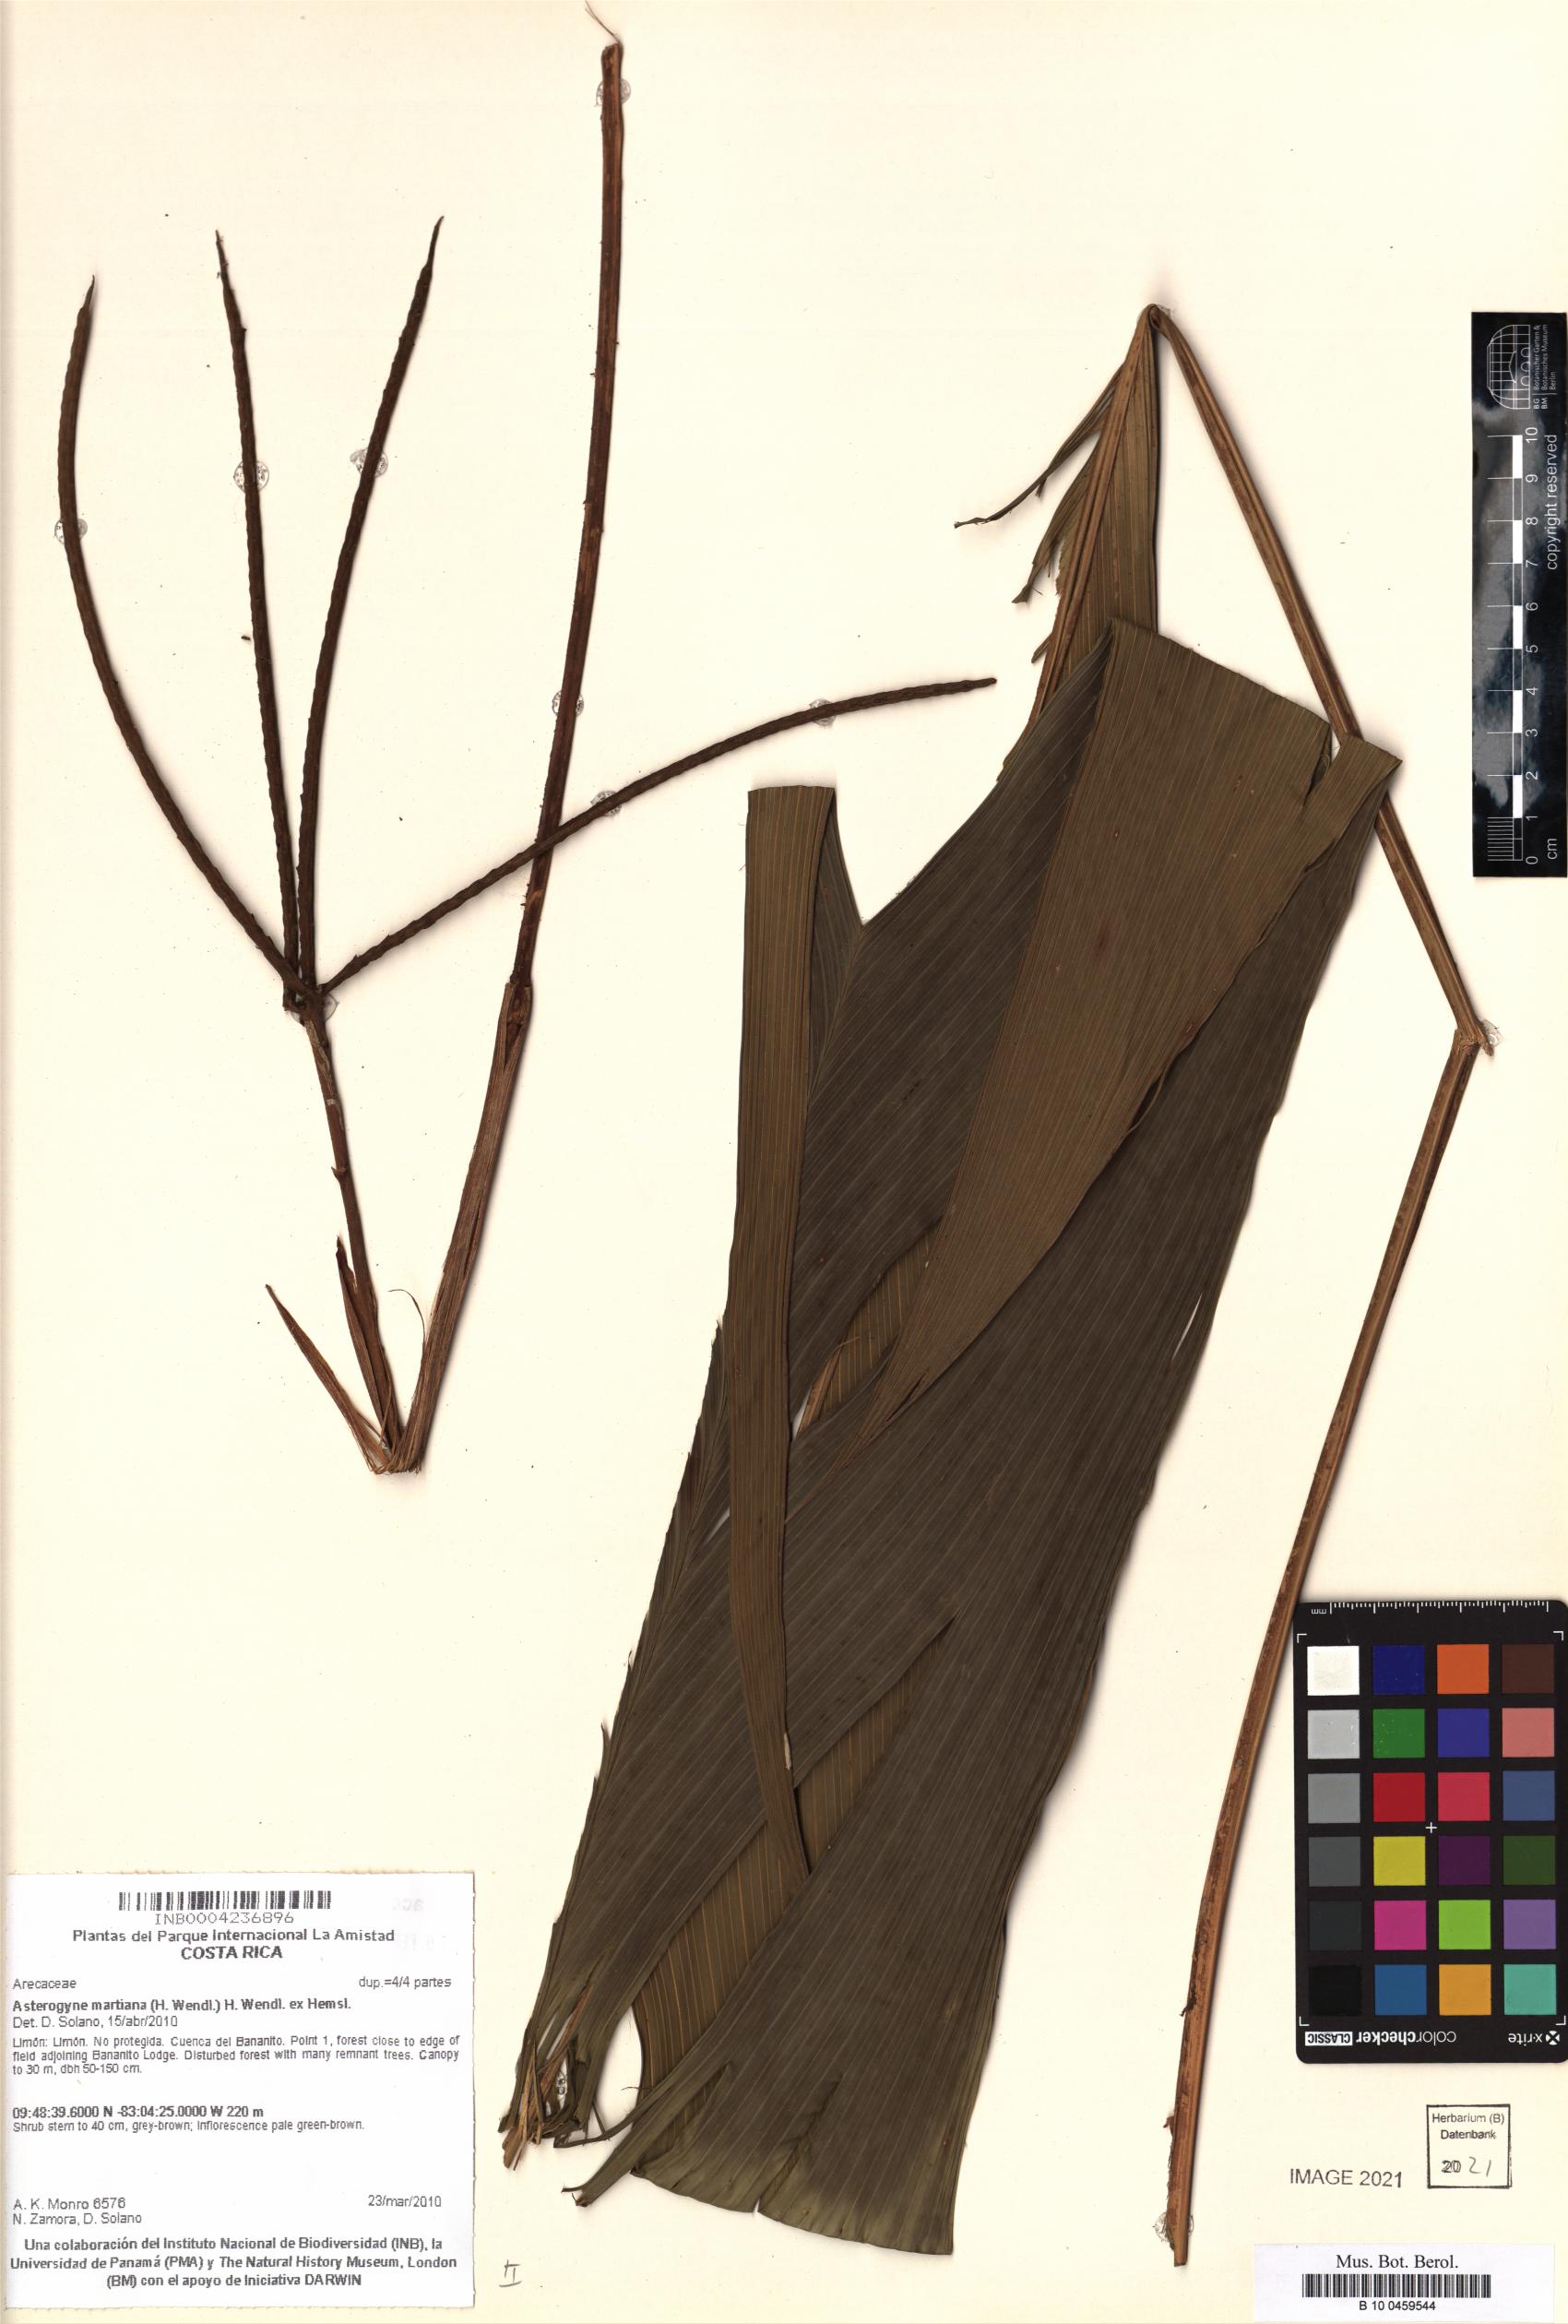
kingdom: Plantae
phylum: Tracheophyta
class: Liliopsida
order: Arecales
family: Arecaceae
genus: Asterogyne
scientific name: Asterogyne martiana
